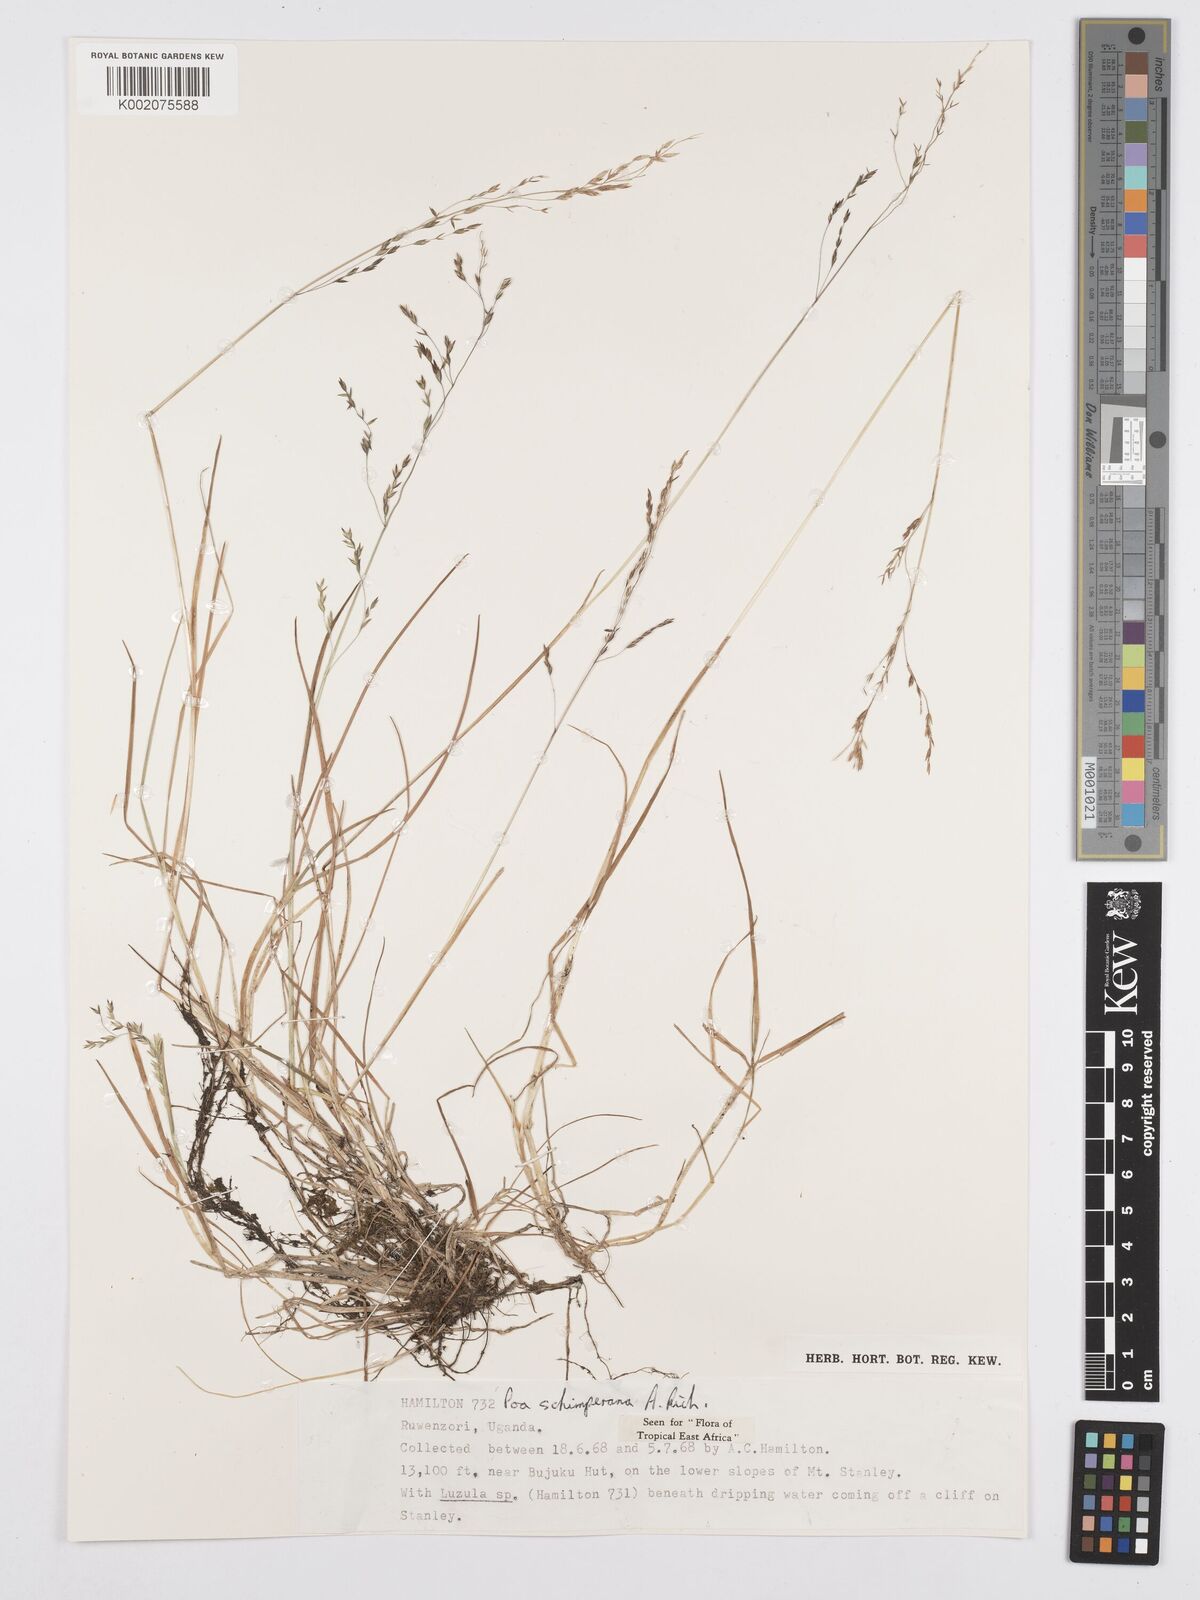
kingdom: Plantae
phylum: Tracheophyta
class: Liliopsida
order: Poales
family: Poaceae
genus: Poa
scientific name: Poa schimperiana
